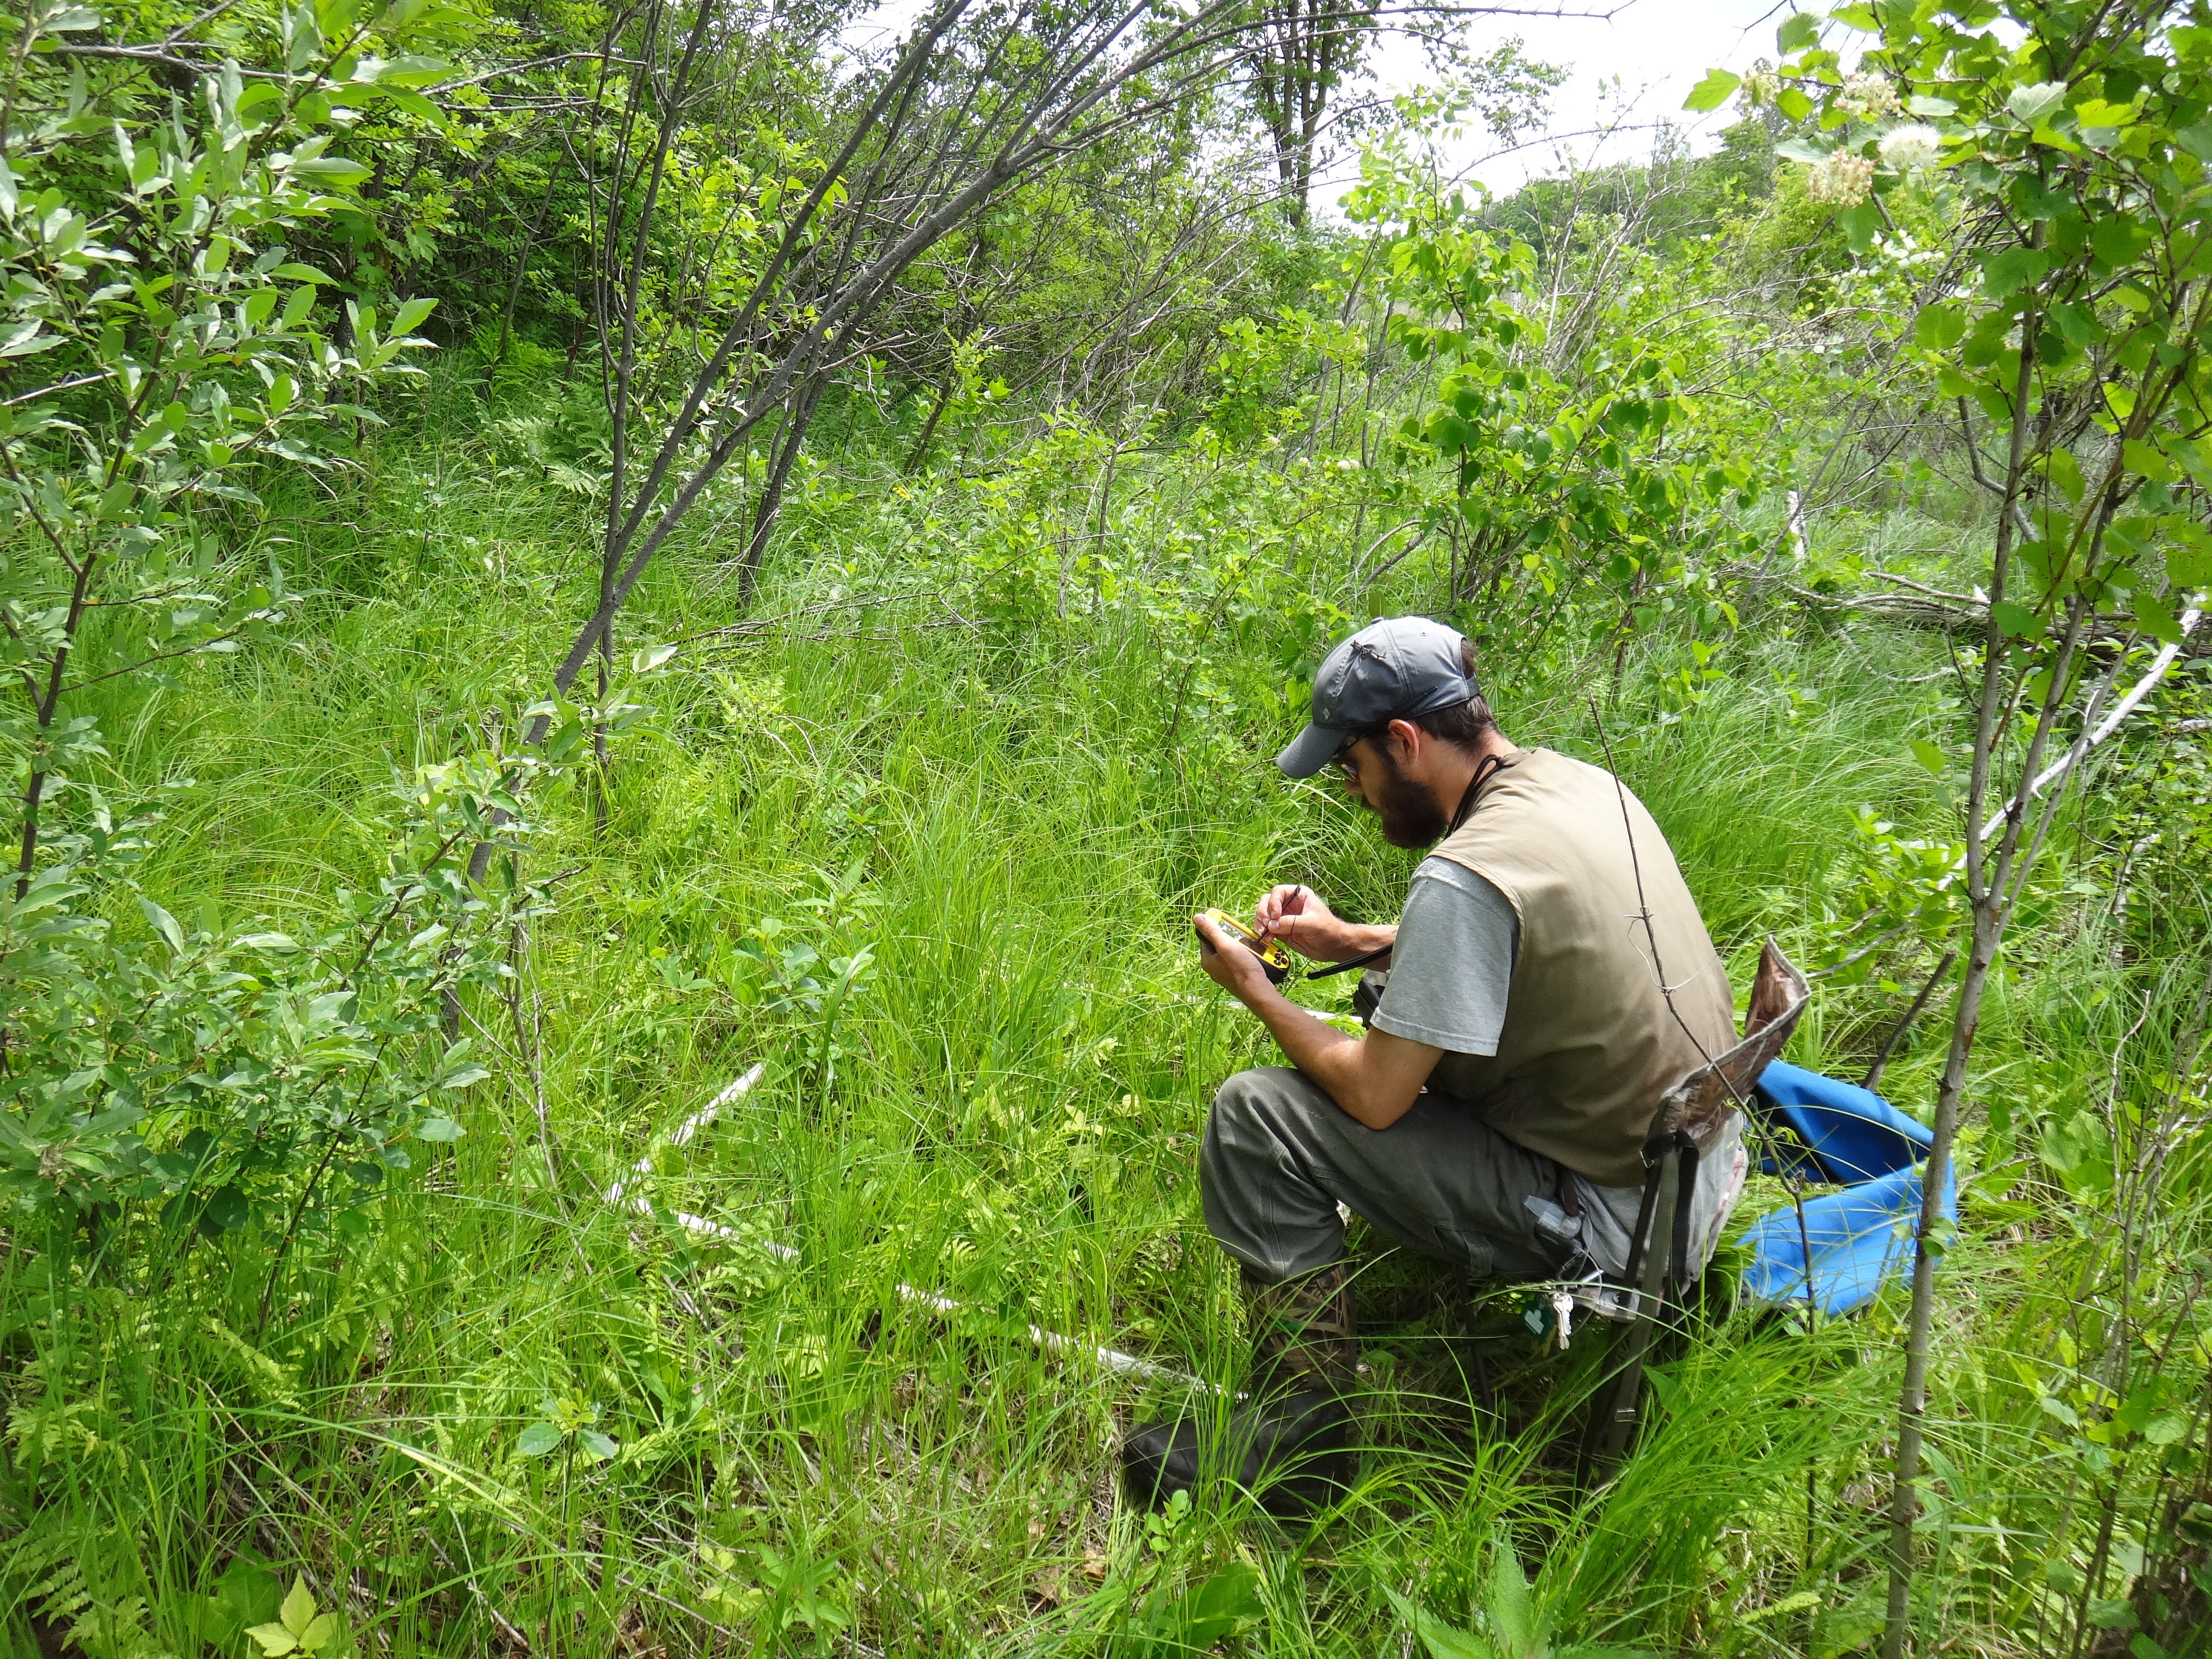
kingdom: Plantae
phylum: Tracheophyta
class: Liliopsida
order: Asparagales
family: Asparagaceae
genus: Maianthemum
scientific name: Maianthemum stellatum
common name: Little false solomon's seal
